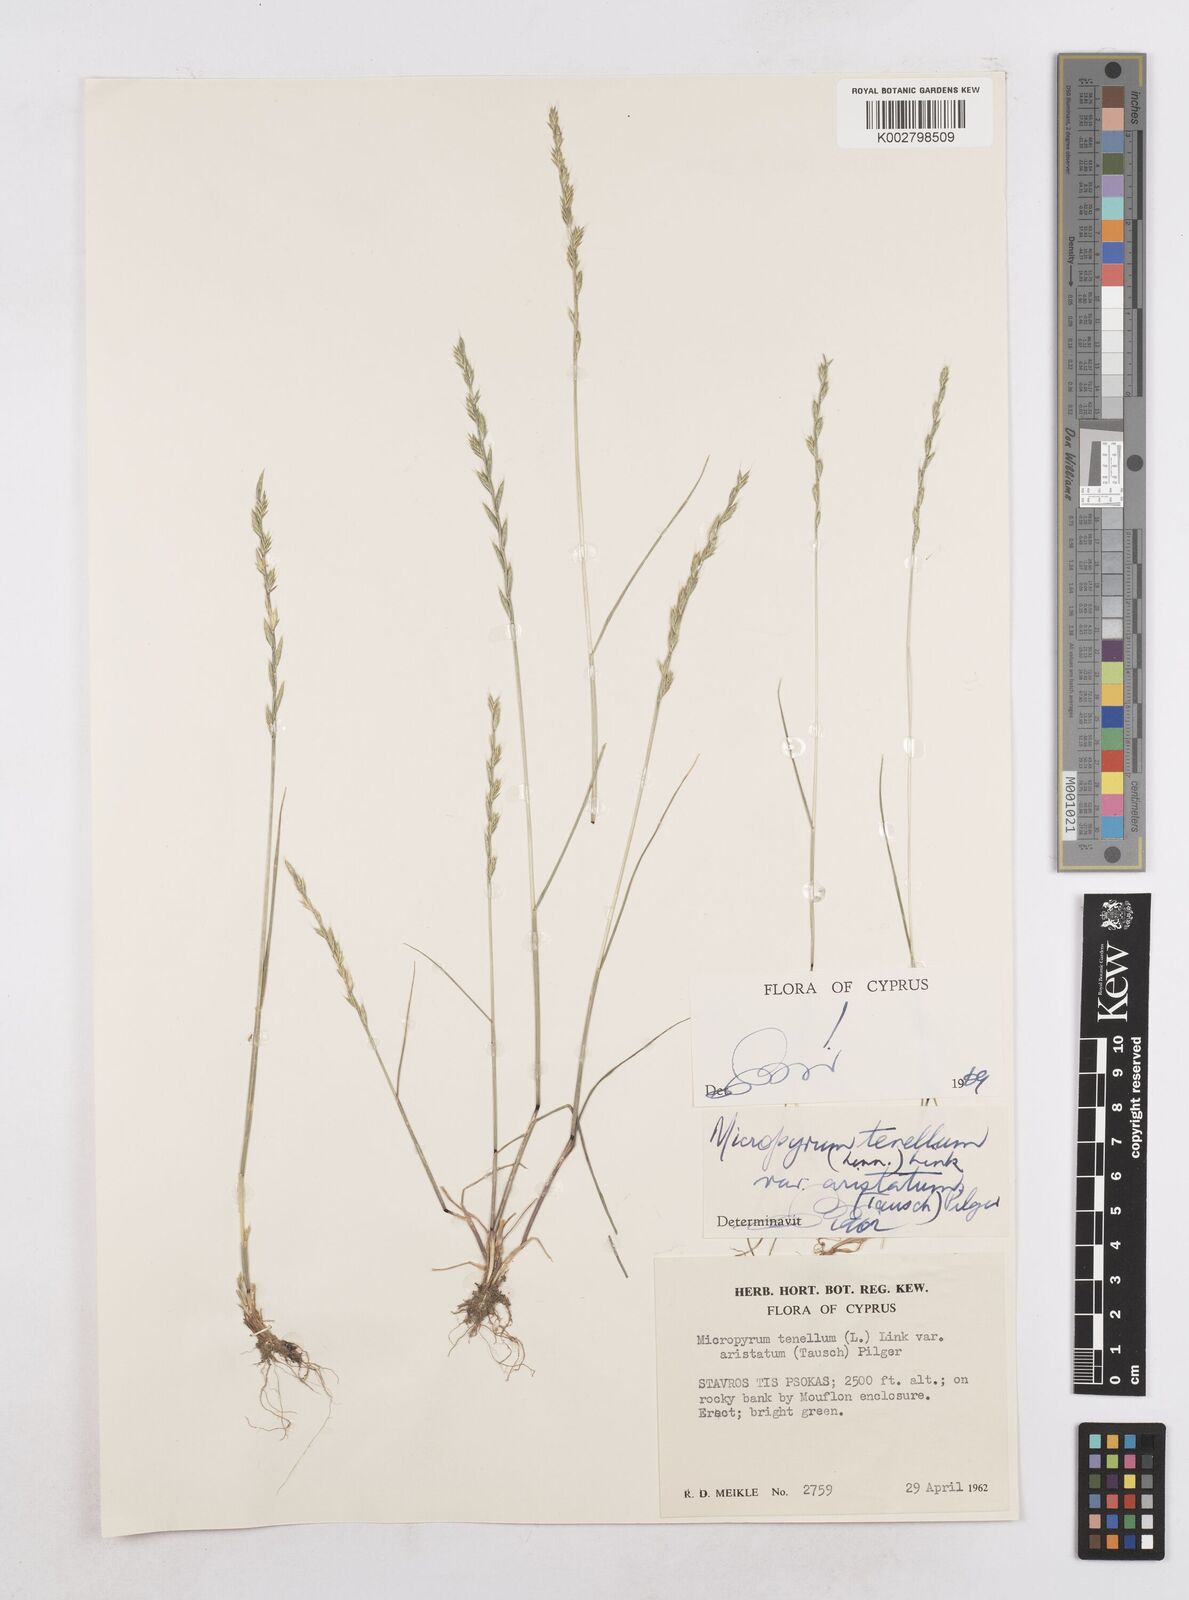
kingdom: Plantae
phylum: Tracheophyta
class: Liliopsida
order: Poales
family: Poaceae
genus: Festuca
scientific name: Festuca lachenalii
